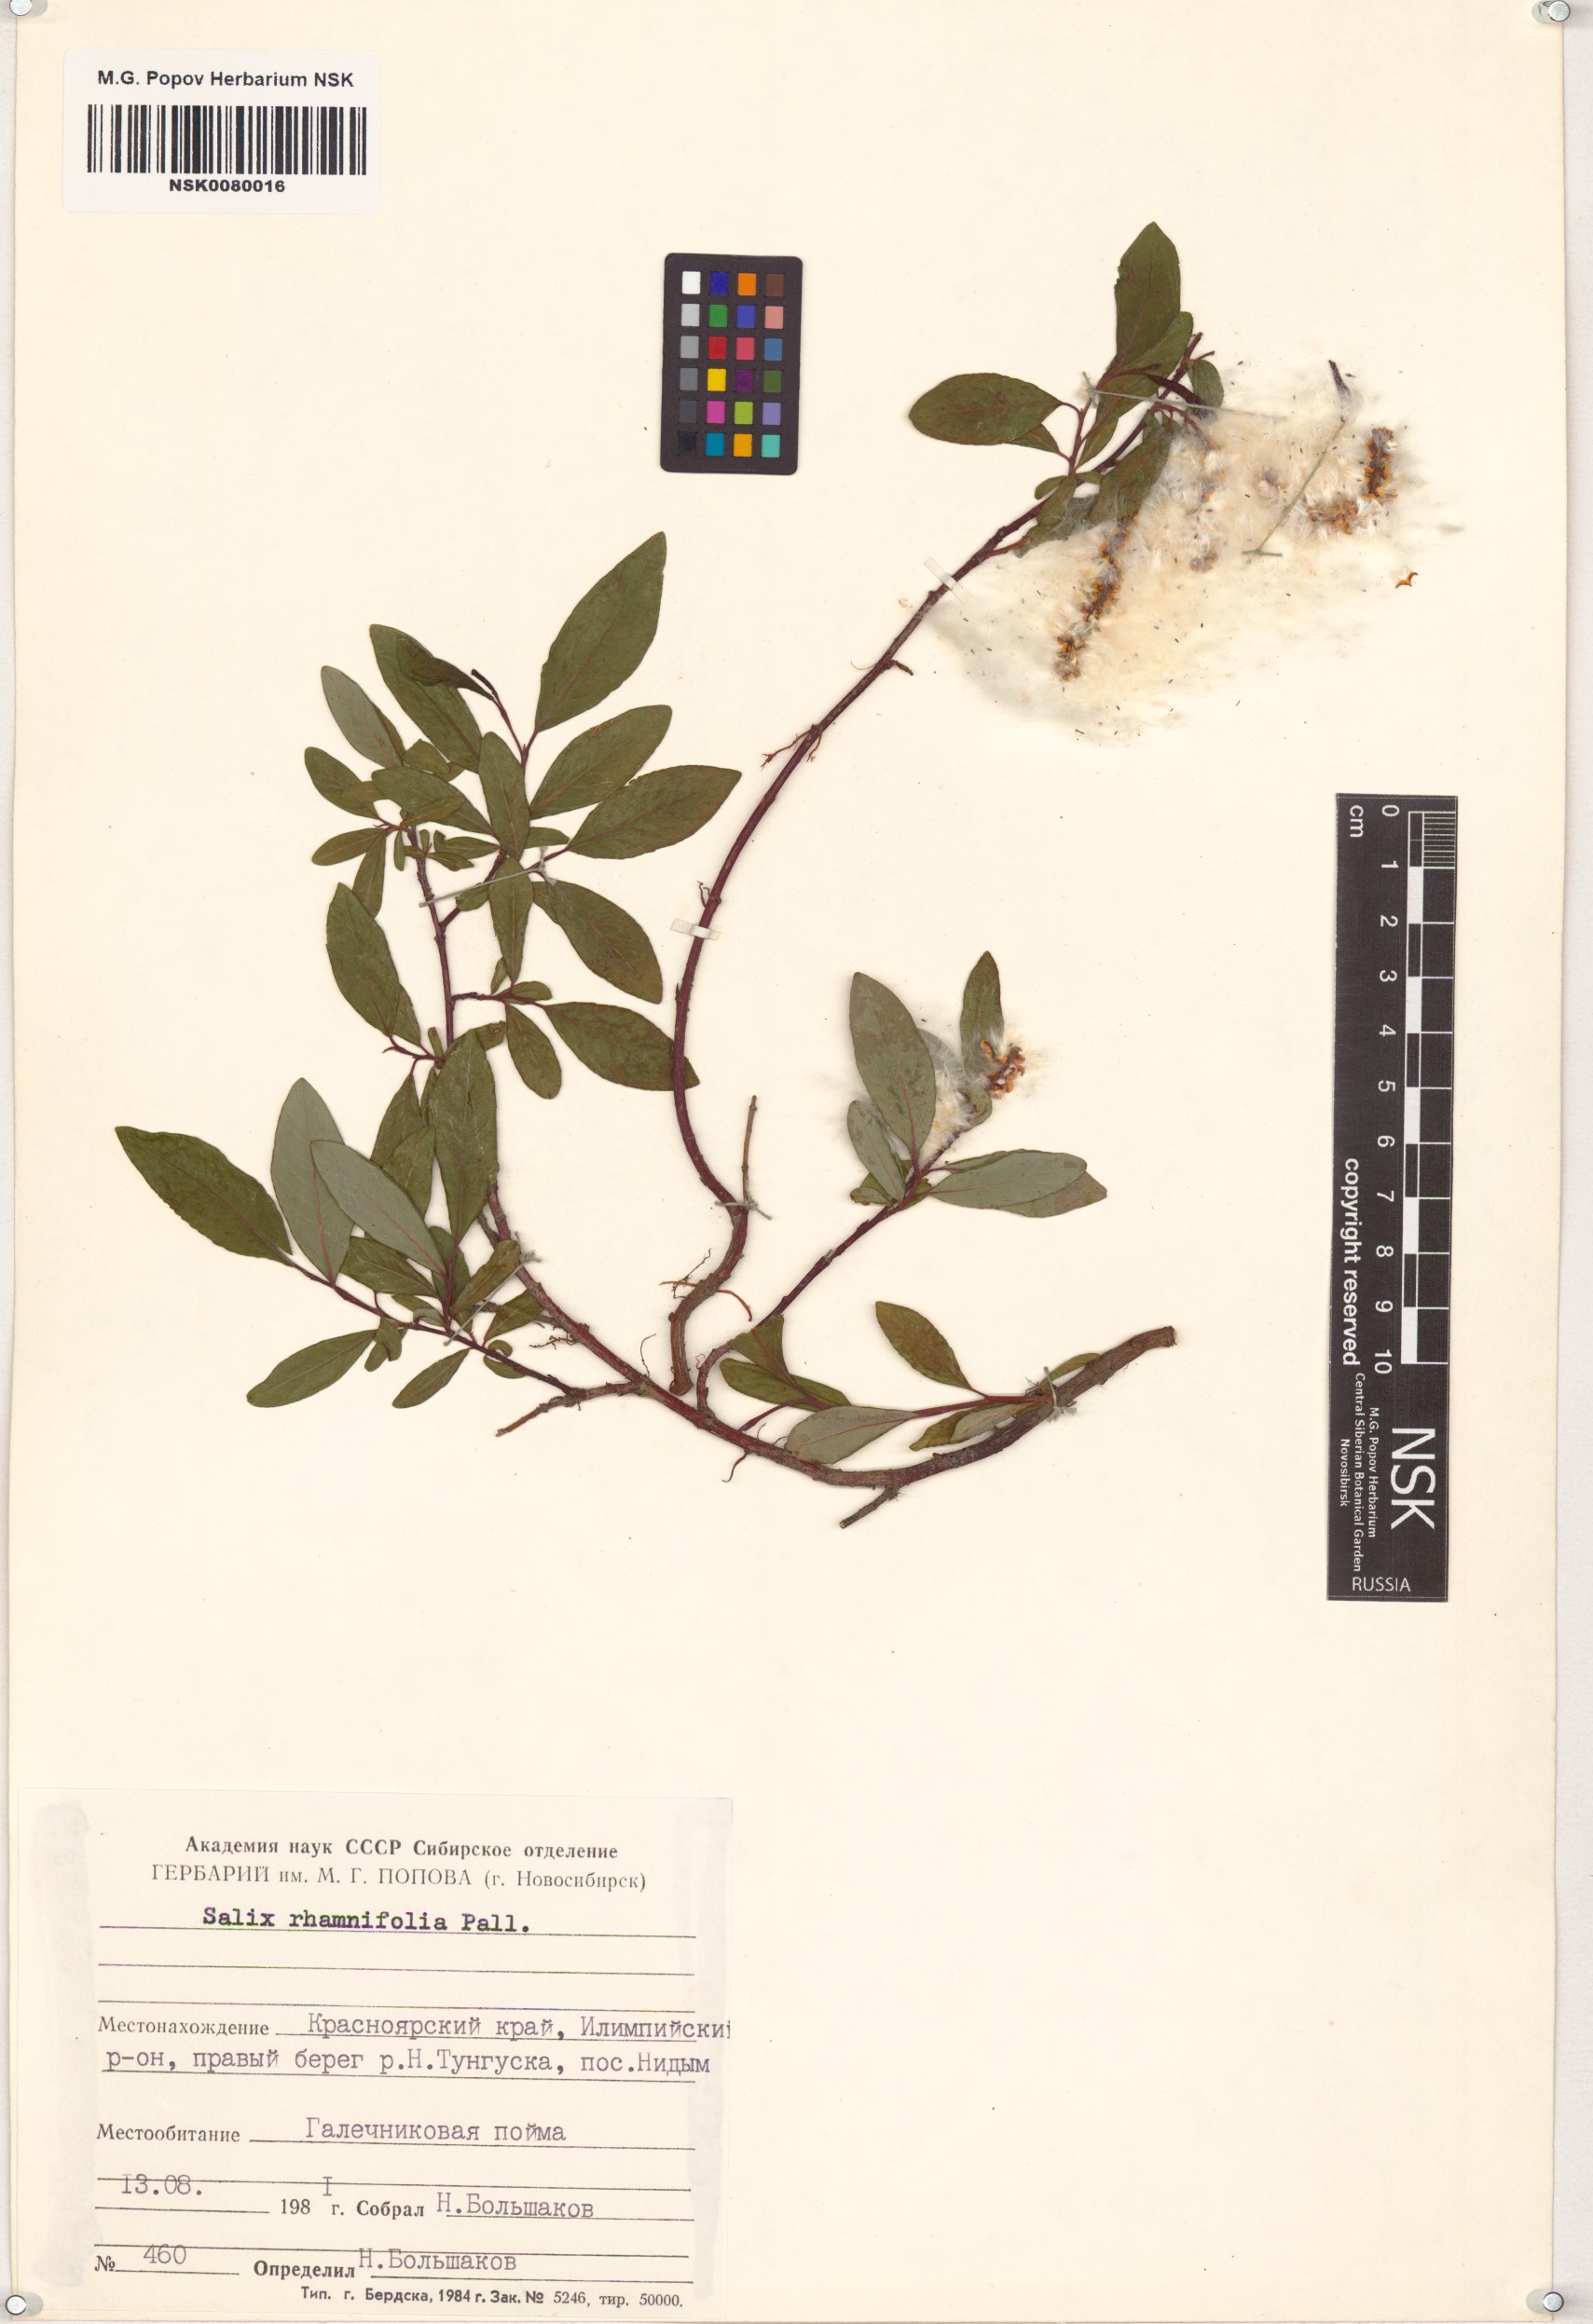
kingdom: Plantae
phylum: Tracheophyta
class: Magnoliopsida
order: Malpighiales
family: Salicaceae
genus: Salix
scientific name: Salix rhamnifolia
